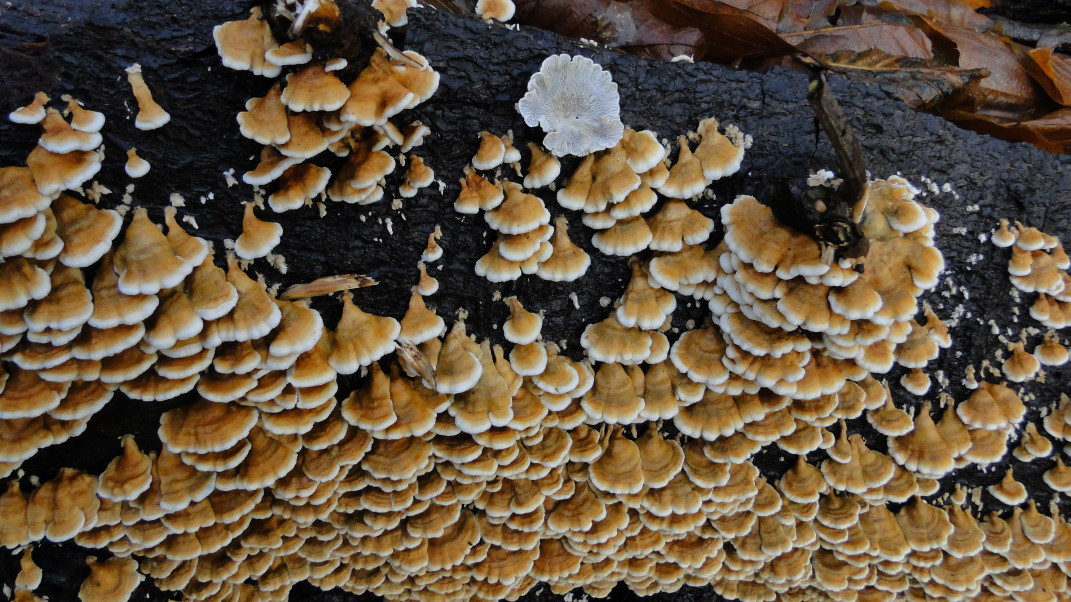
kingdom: Fungi
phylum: Basidiomycota
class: Agaricomycetes
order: Amylocorticiales
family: Amylocorticiaceae
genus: Plicaturopsis
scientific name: Plicaturopsis crispa
